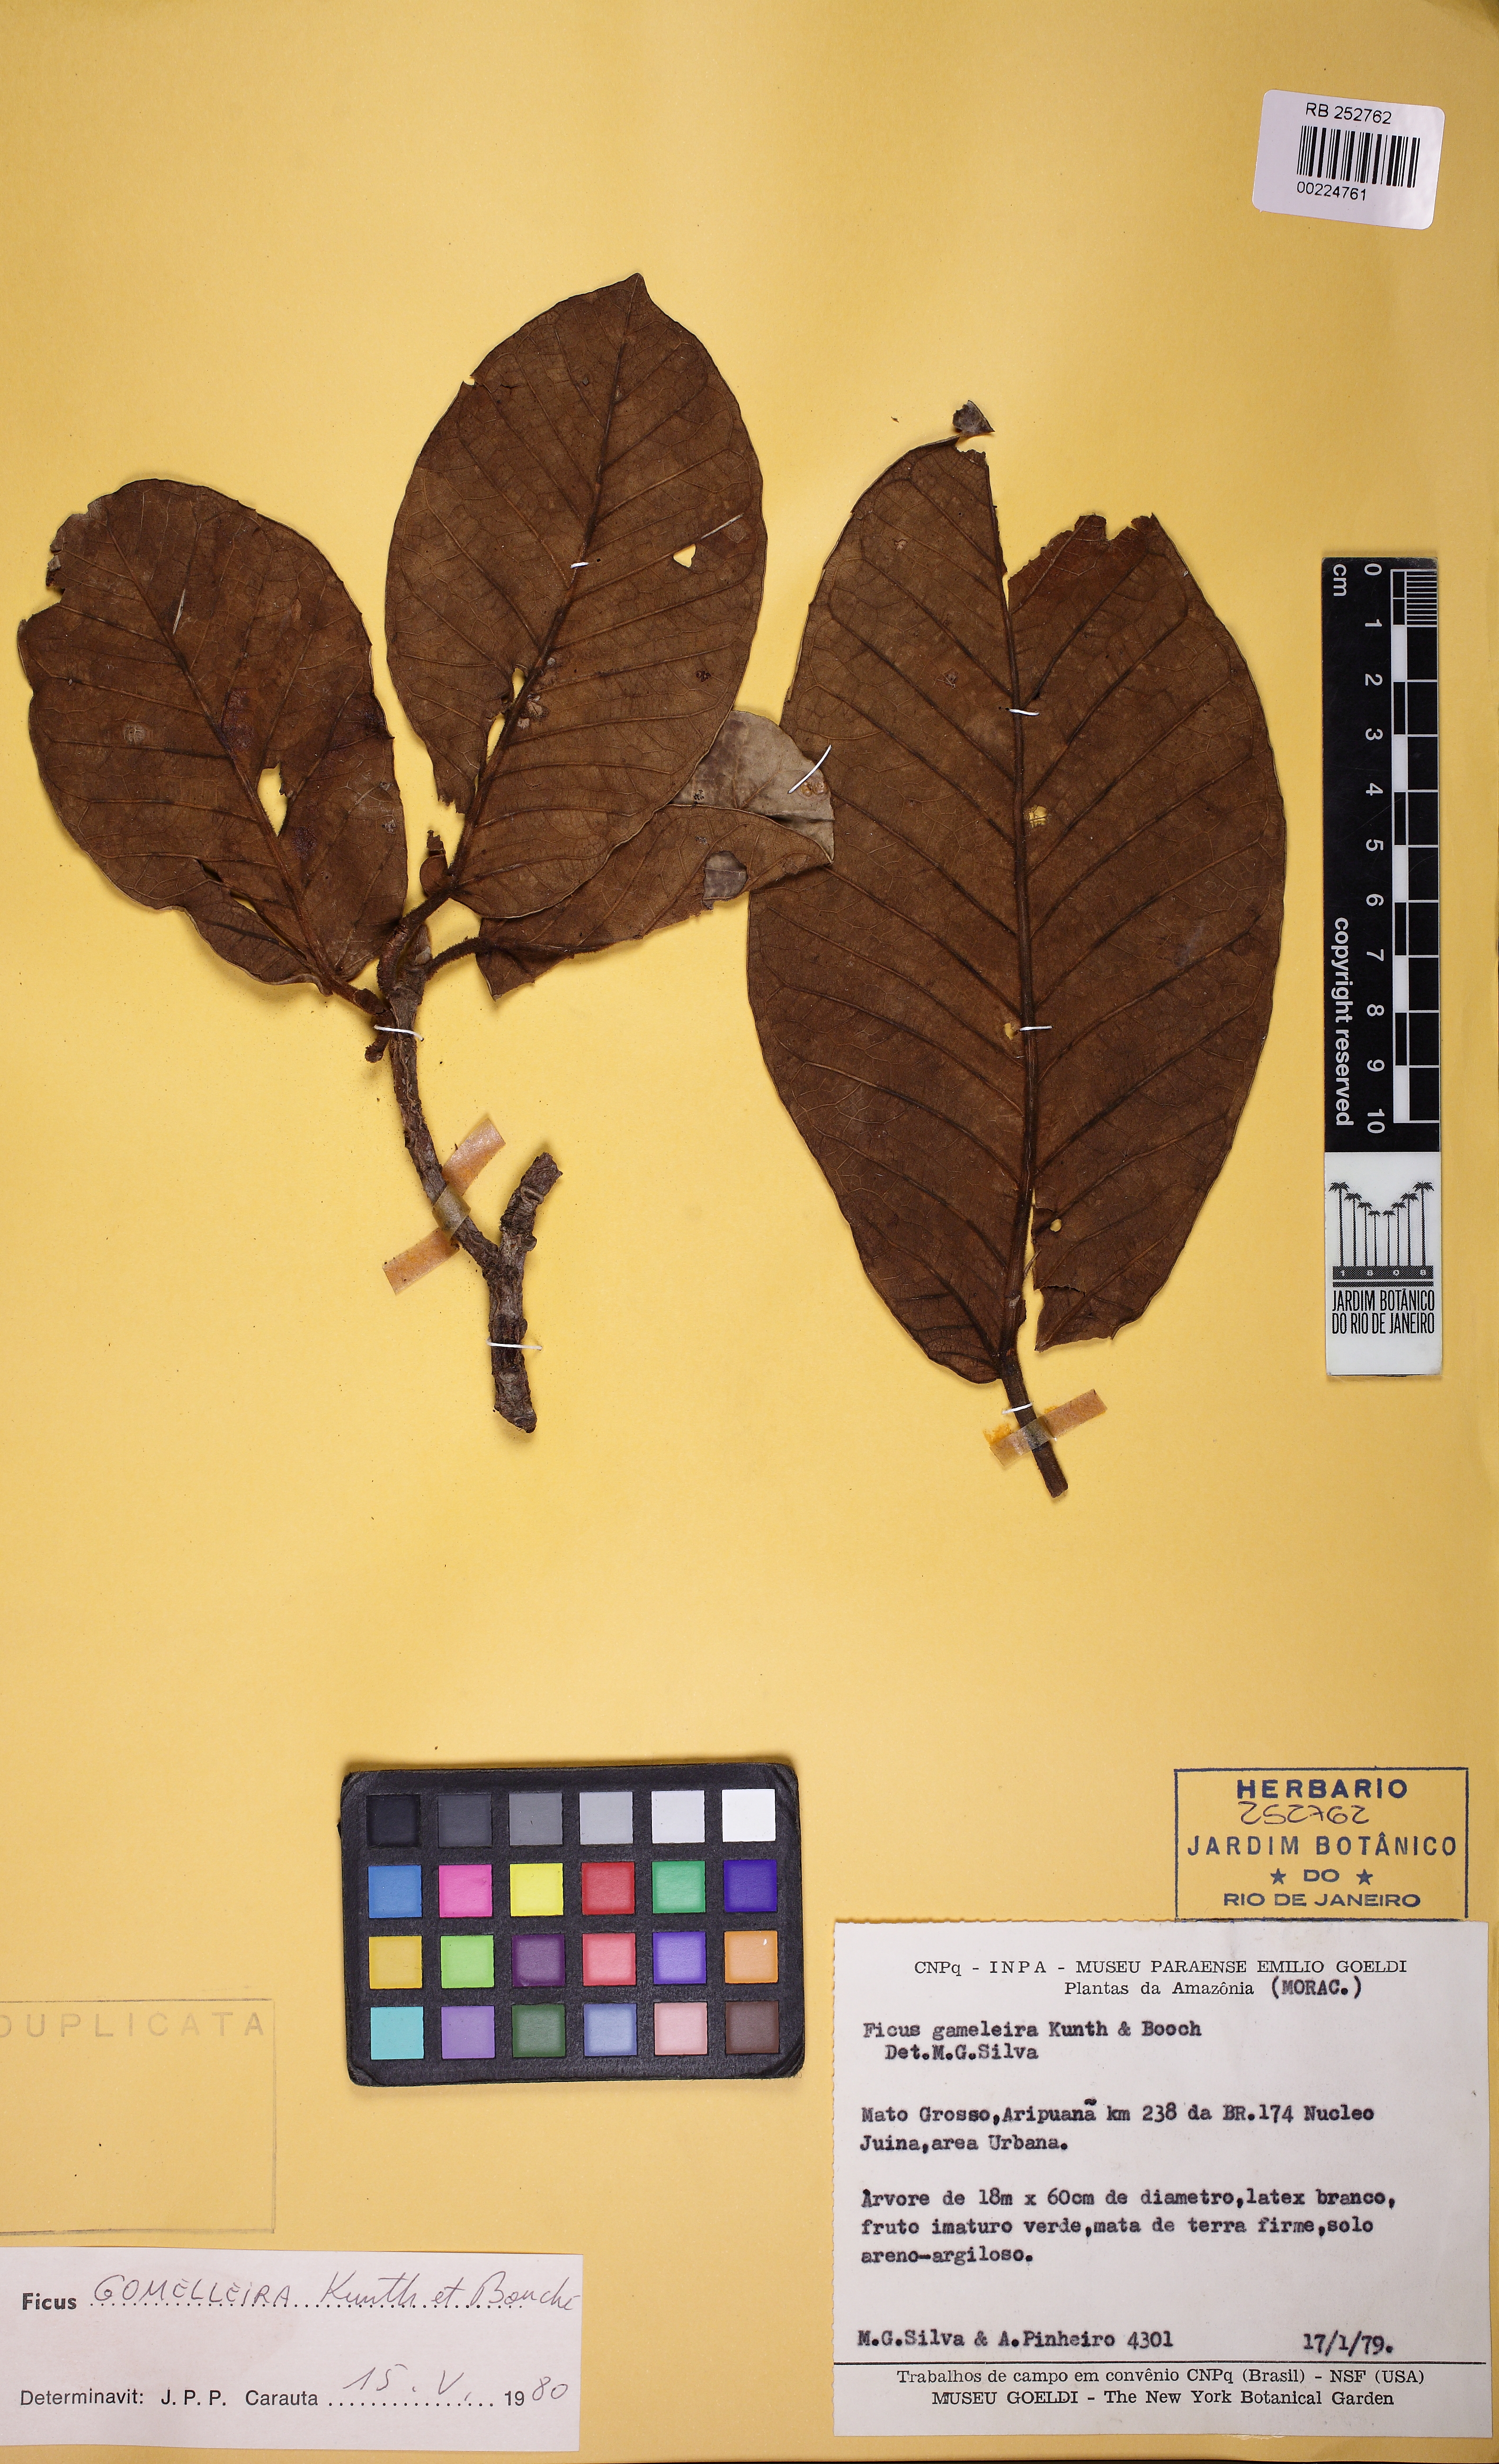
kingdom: Plantae
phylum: Tracheophyta
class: Magnoliopsida
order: Rosales
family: Moraceae
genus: Ficus
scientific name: Ficus christianii
